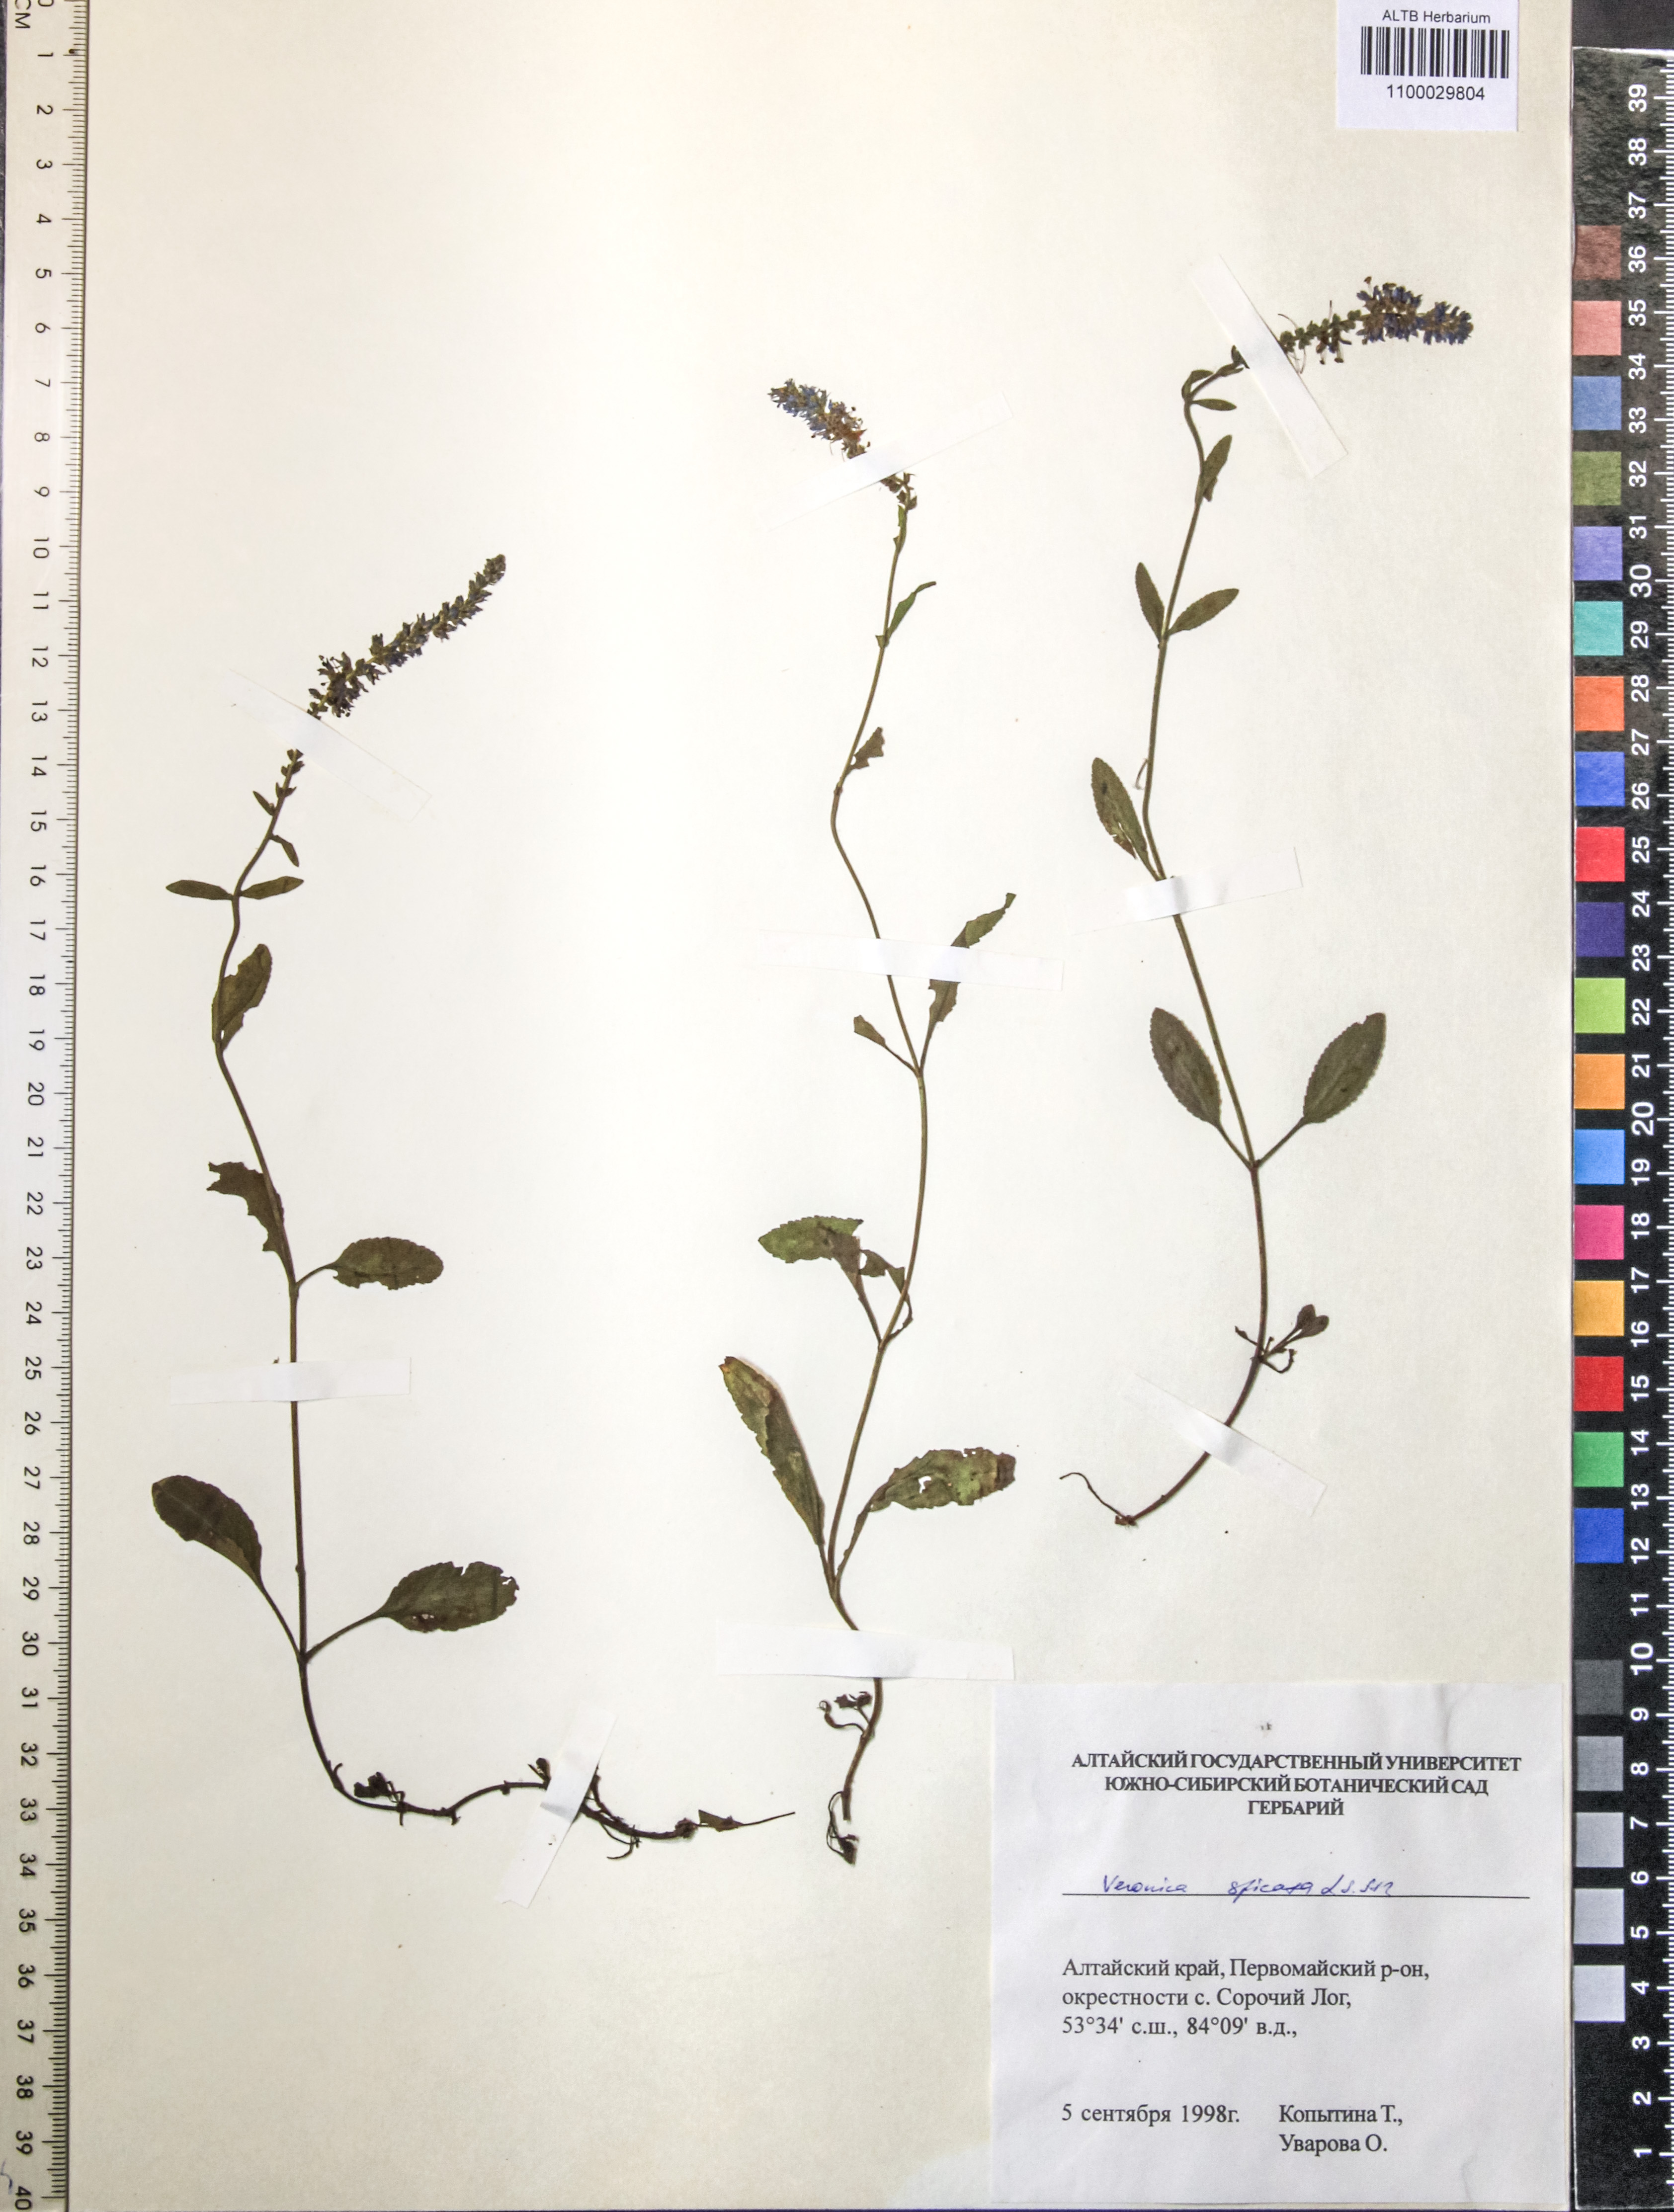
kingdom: Plantae
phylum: Tracheophyta
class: Magnoliopsida
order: Lamiales
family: Plantaginaceae
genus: Veronica
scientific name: Veronica spicata
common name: Spiked speedwell
